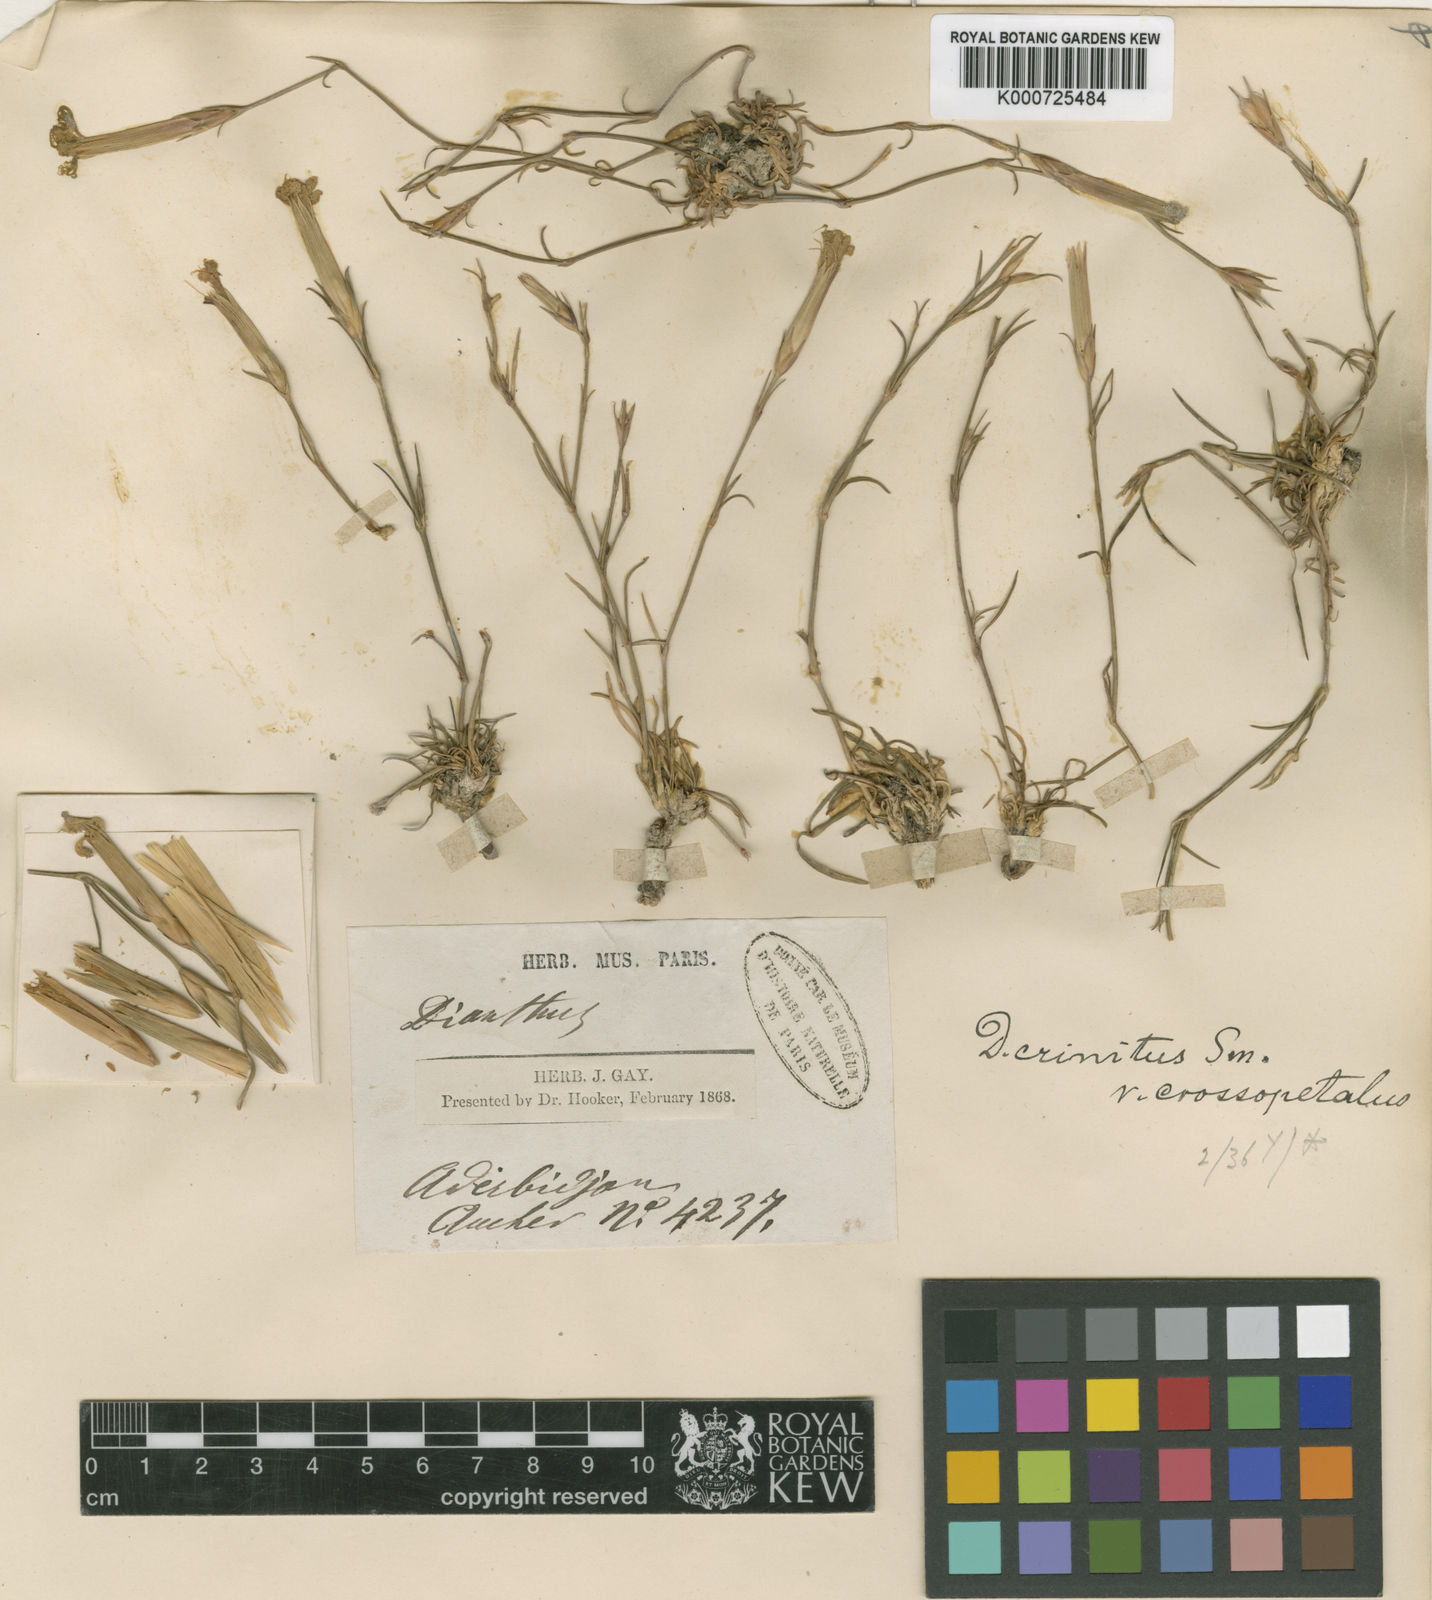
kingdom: Plantae
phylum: Tracheophyta
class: Magnoliopsida
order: Caryophyllales
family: Caryophyllaceae
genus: Dianthus
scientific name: Dianthus
